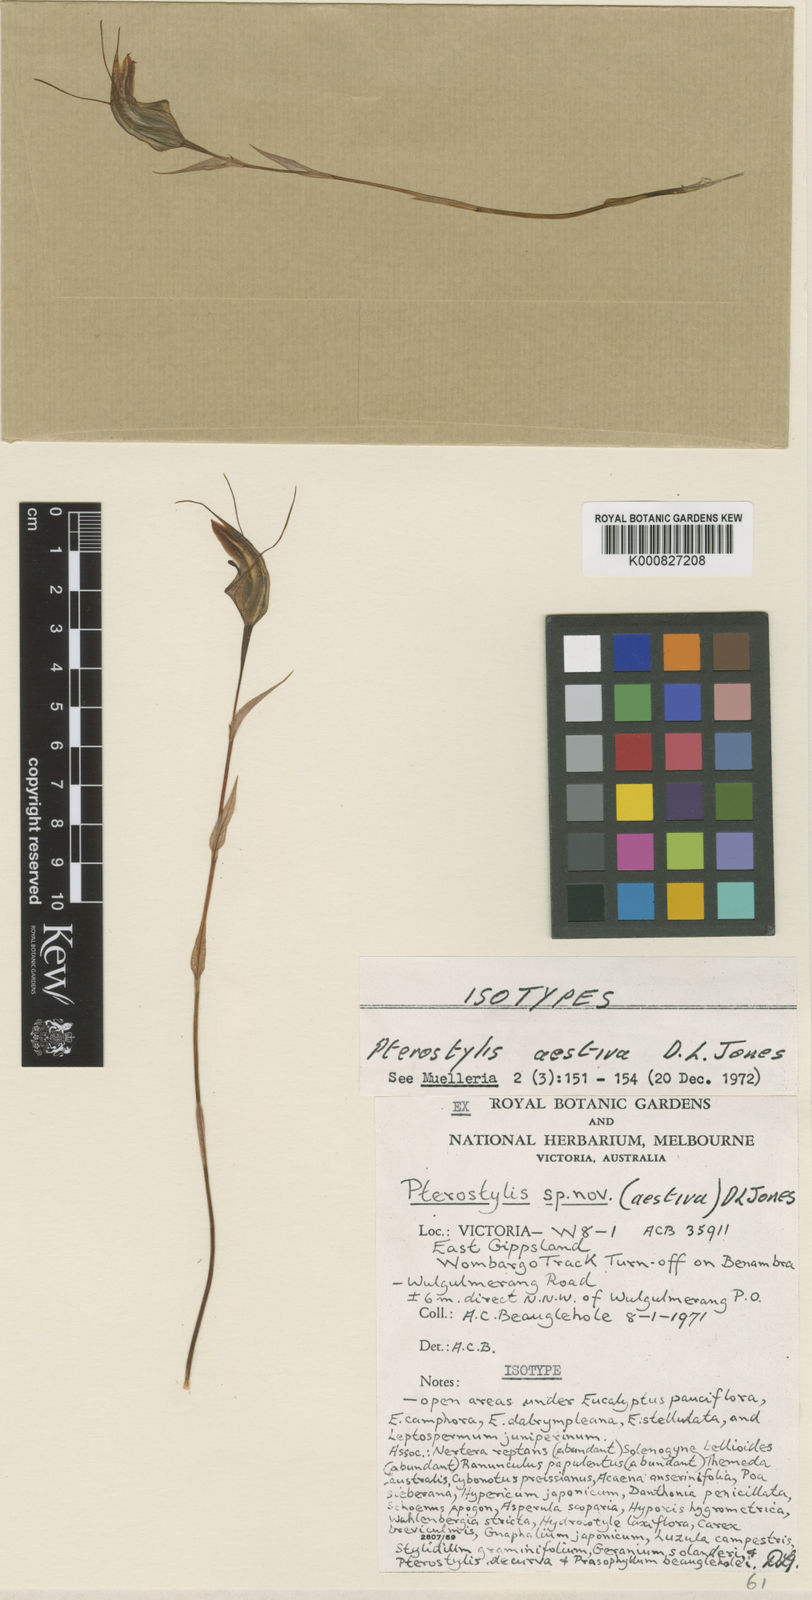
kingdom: Plantae
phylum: Tracheophyta
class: Liliopsida
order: Asparagales
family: Orchidaceae
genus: Pterostylis
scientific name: Pterostylis aestiva
